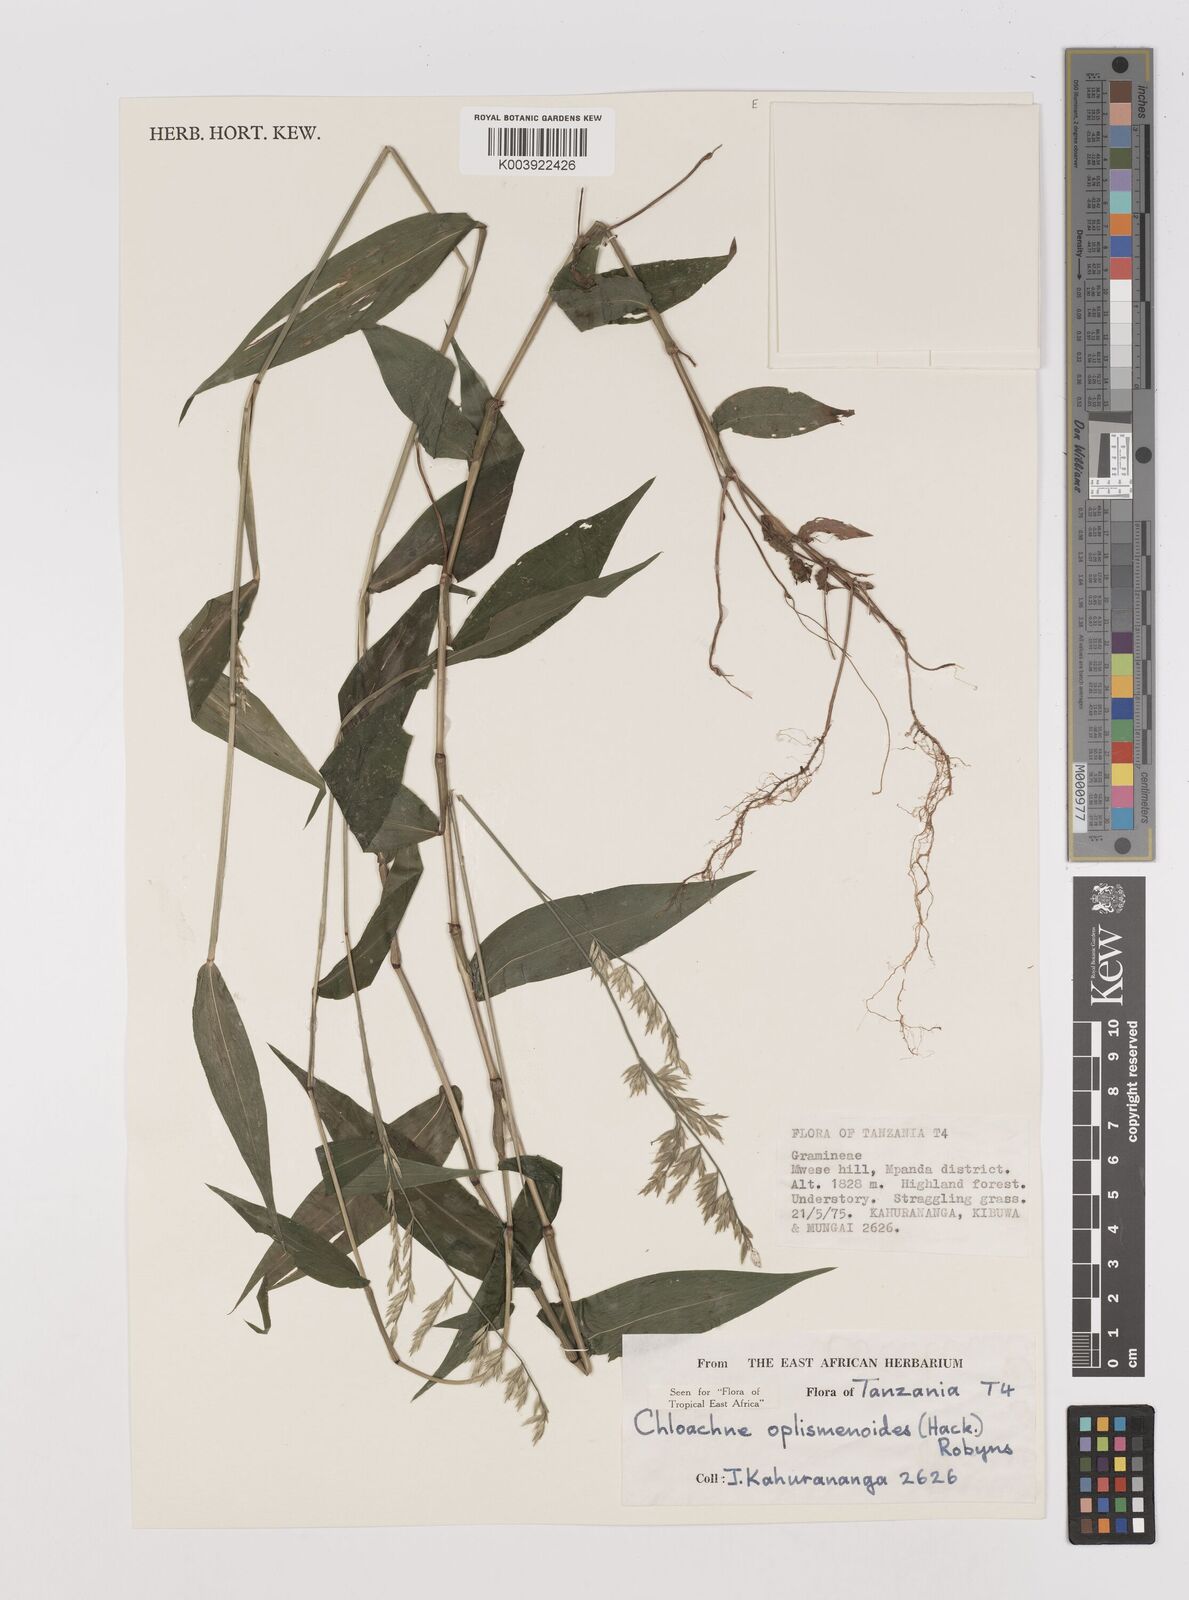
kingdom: Plantae
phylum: Tracheophyta
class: Liliopsida
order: Poales
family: Poaceae
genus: Poecilostachys
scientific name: Poecilostachys oplismenoides
